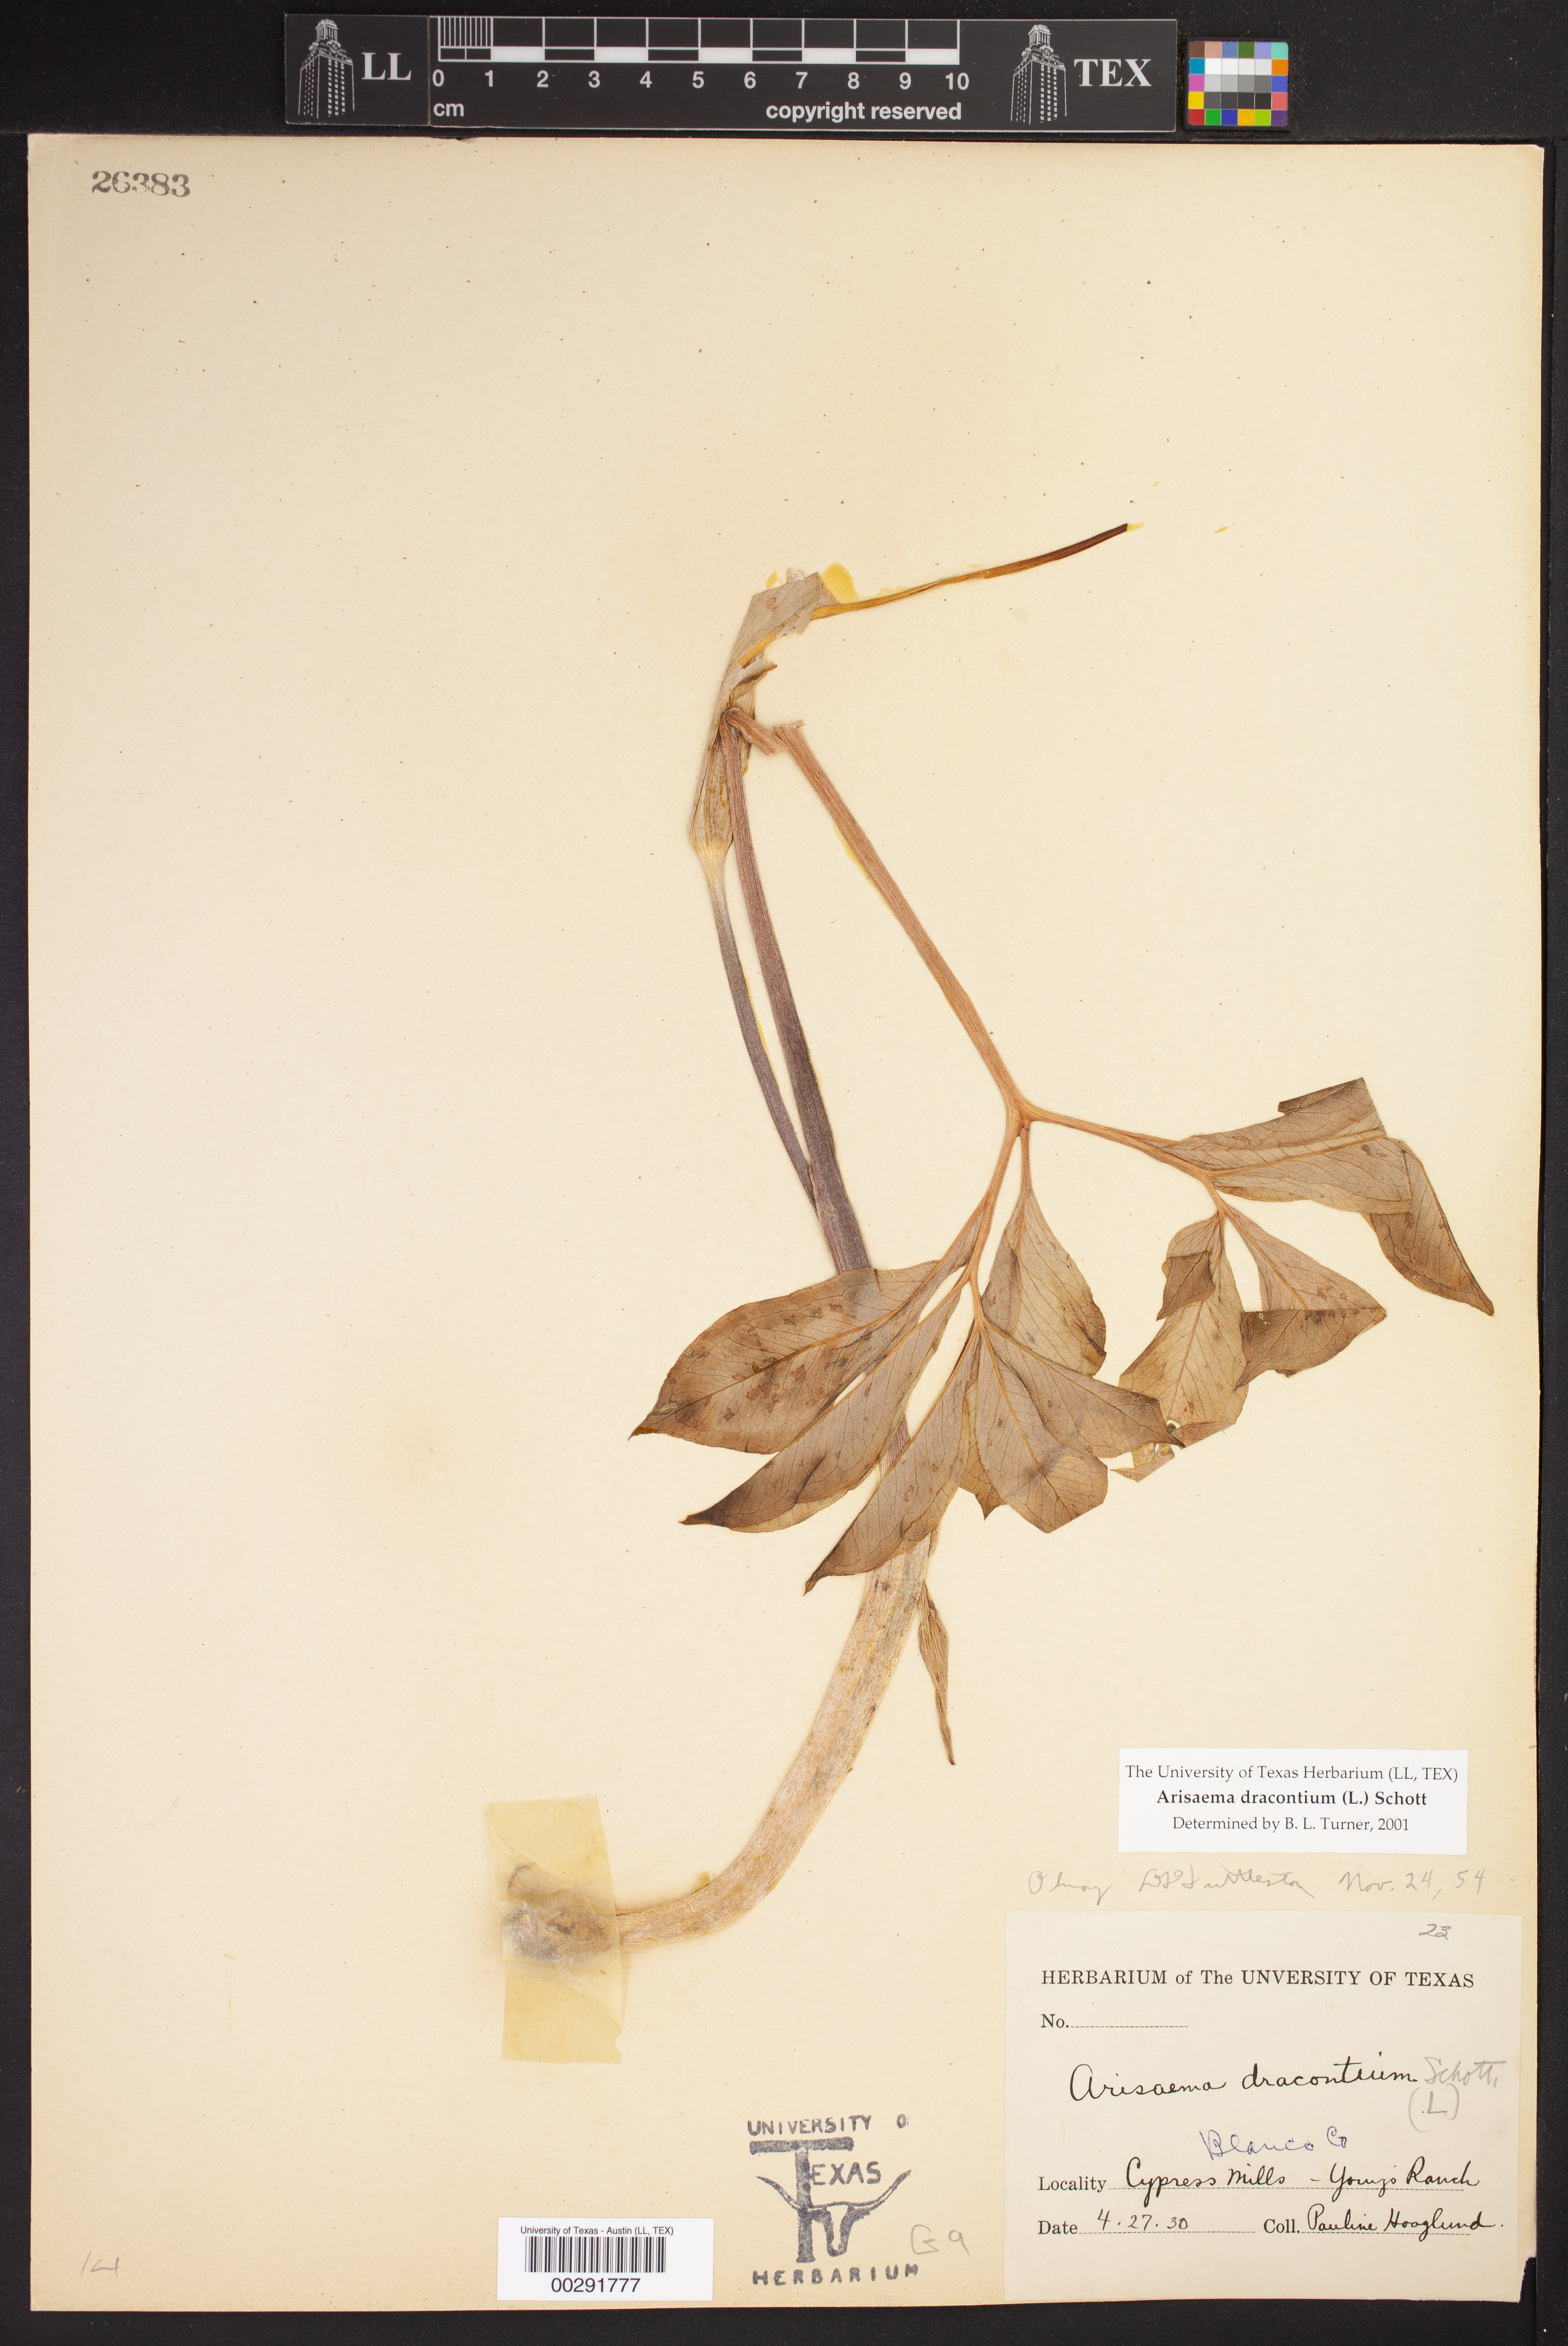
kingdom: Plantae
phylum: Tracheophyta
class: Liliopsida
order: Alismatales
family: Araceae
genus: Arisaema
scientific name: Arisaema dracontium
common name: Dragon-arum
